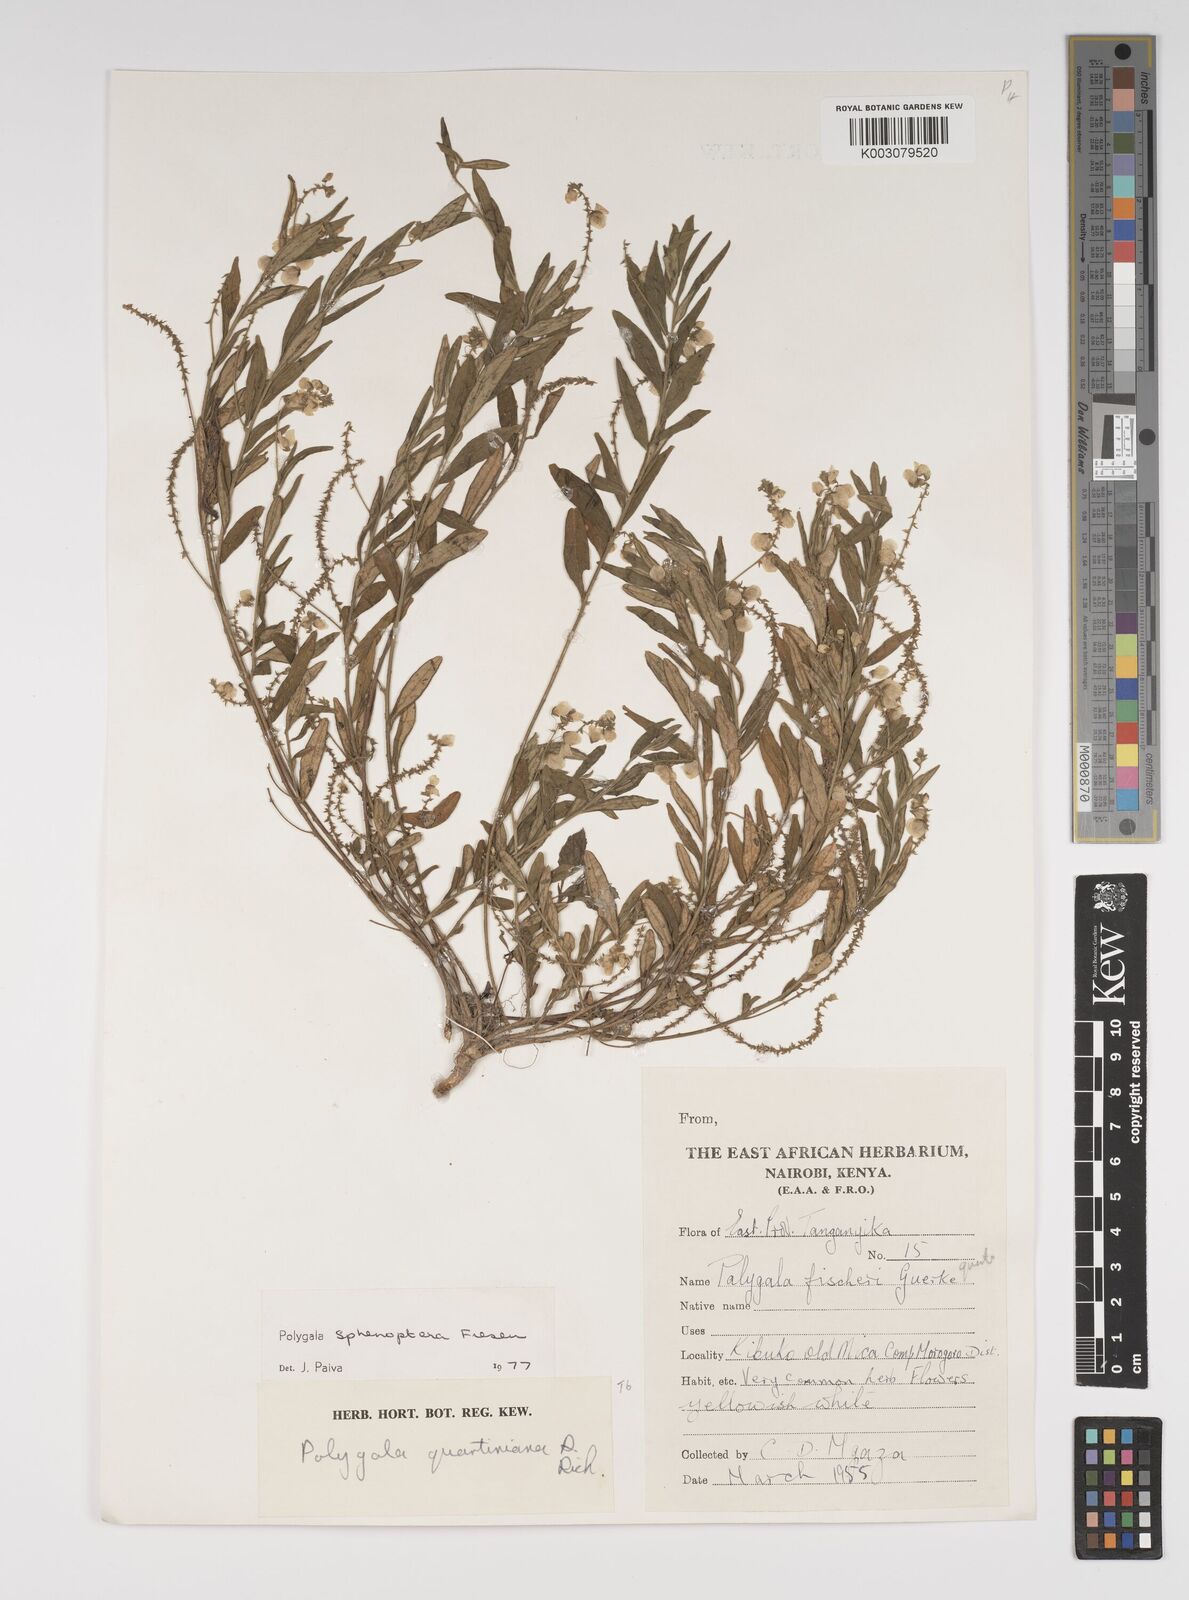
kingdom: Plantae
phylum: Tracheophyta
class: Magnoliopsida
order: Fabales
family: Polygalaceae
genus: Polygala
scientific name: Polygala sphenoptera
